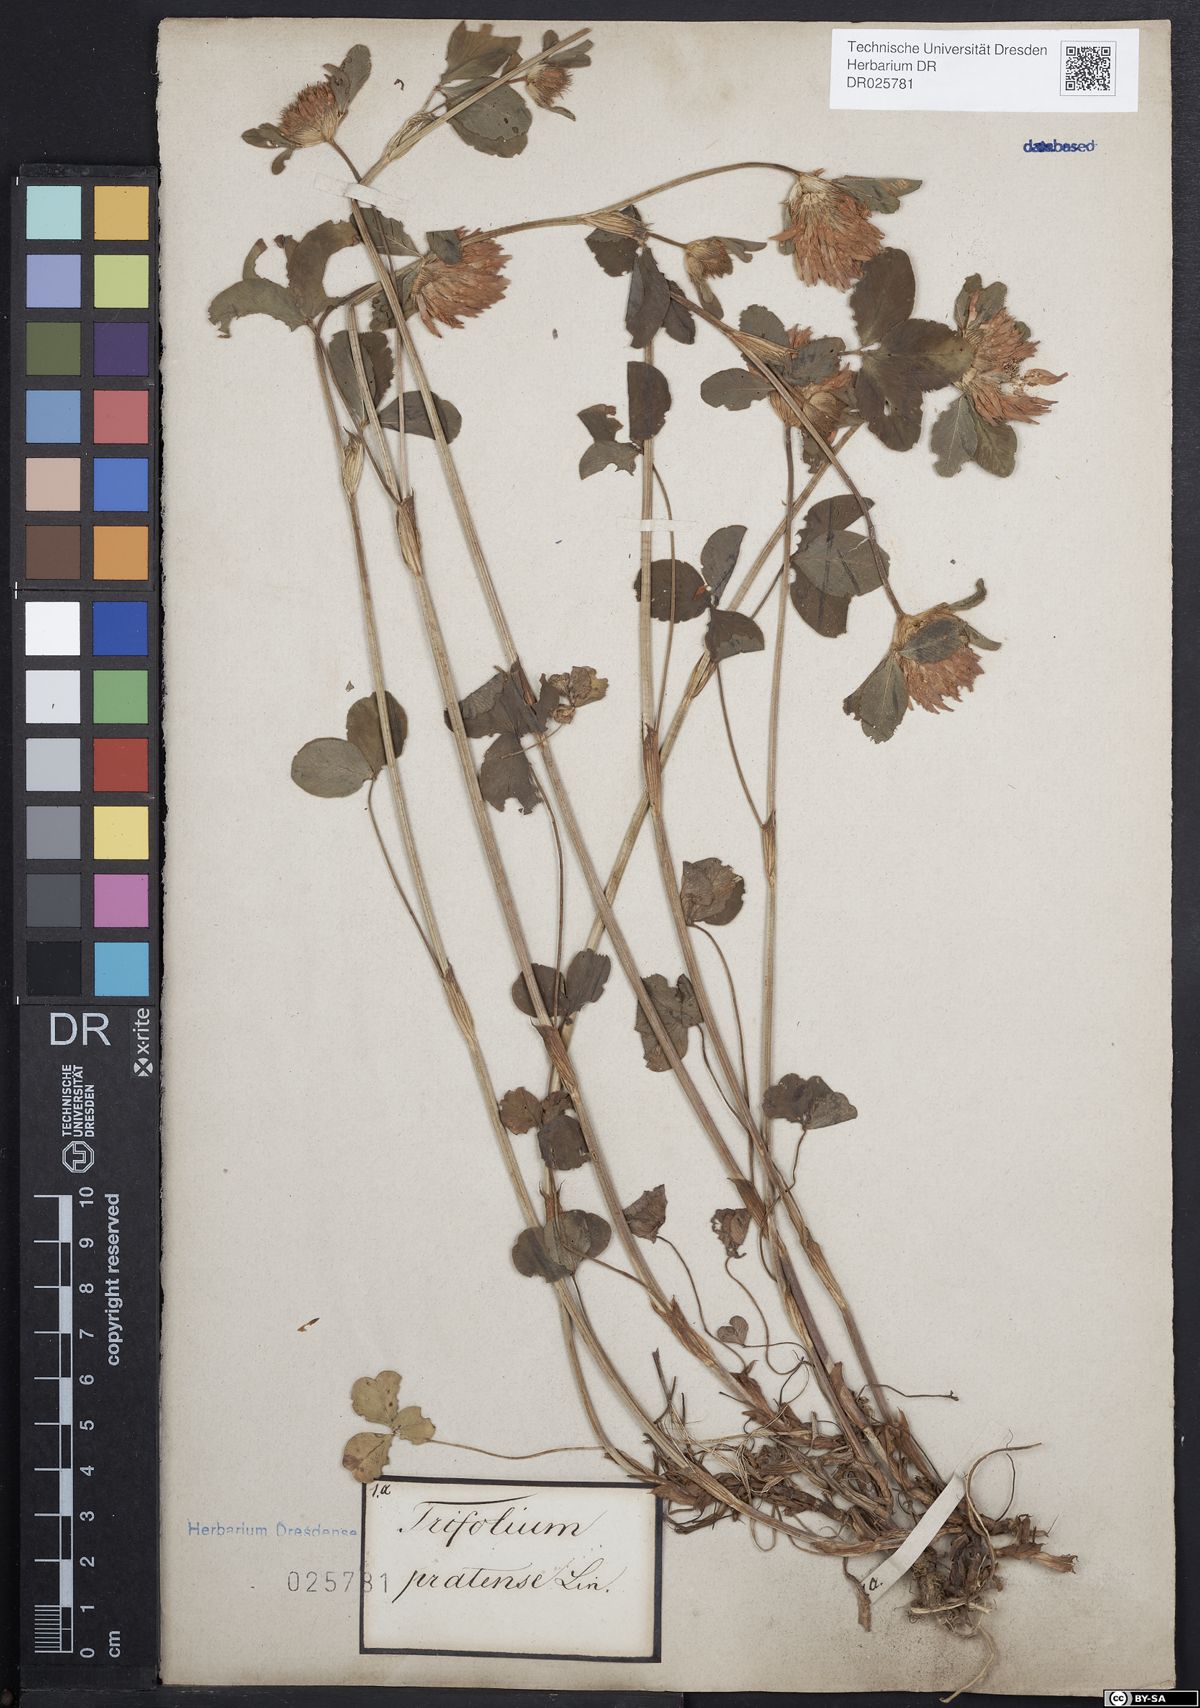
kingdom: Plantae
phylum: Tracheophyta
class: Magnoliopsida
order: Fabales
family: Fabaceae
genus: Trifolium
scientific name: Trifolium pratense
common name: Red clover
